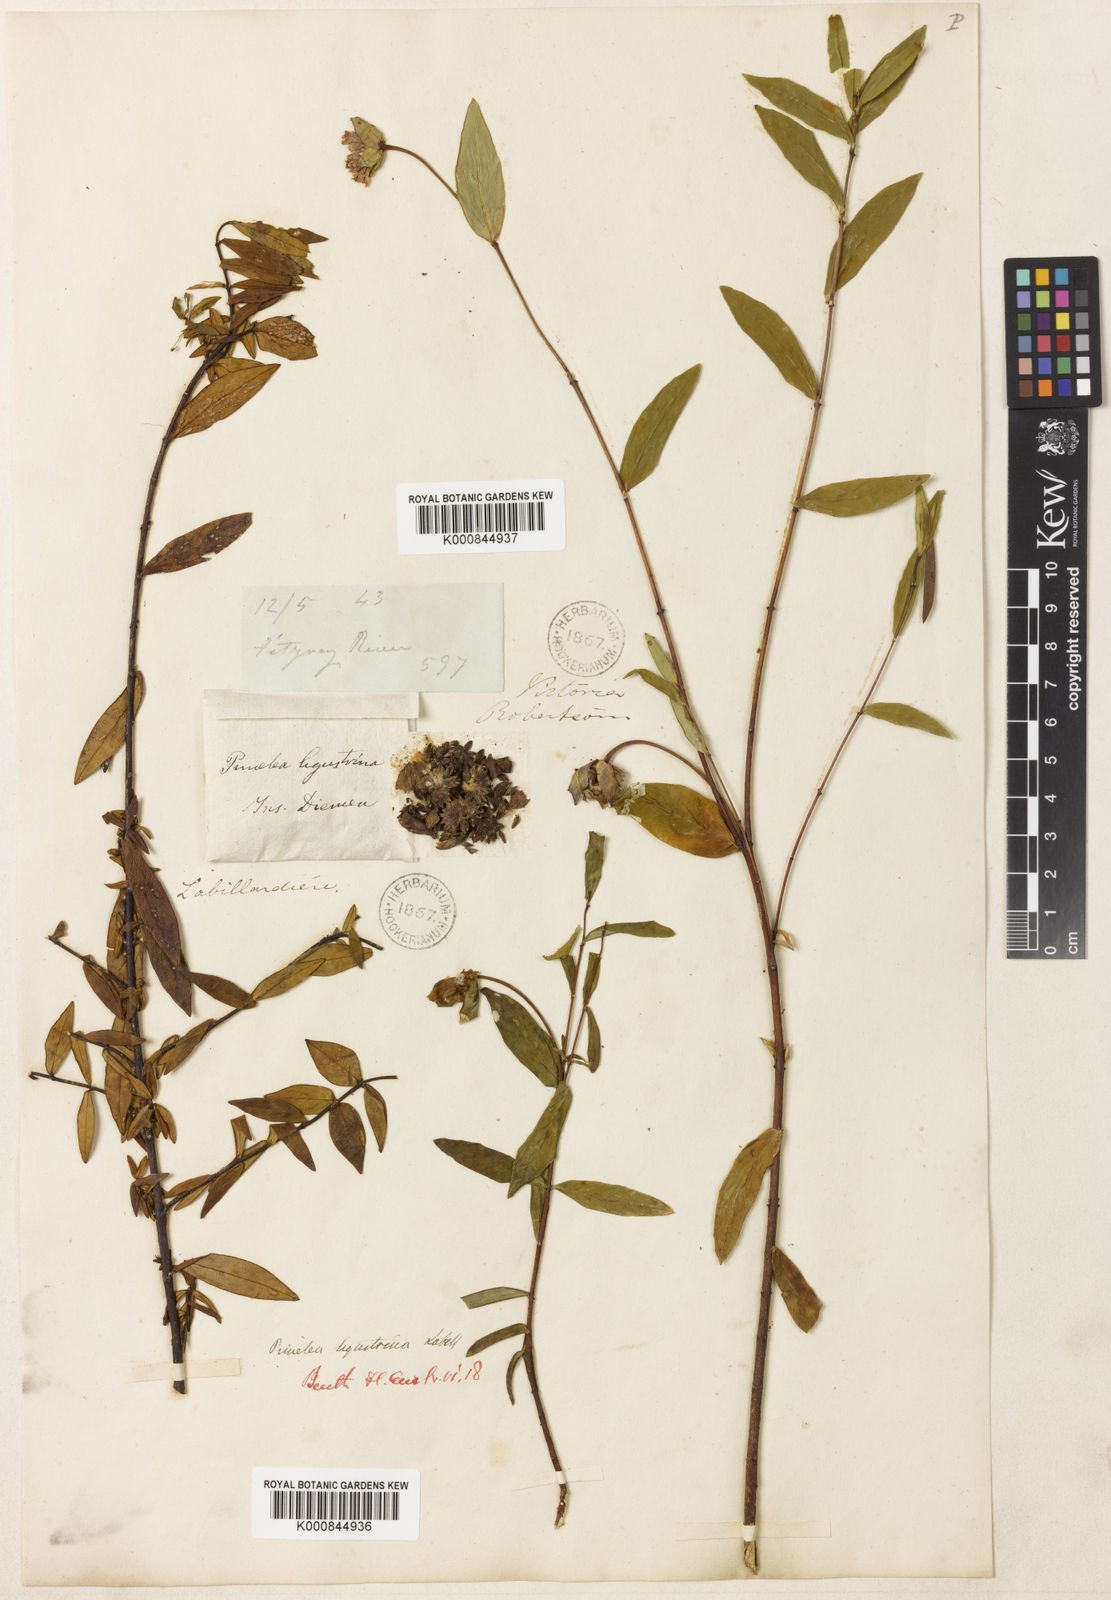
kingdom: Plantae
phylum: Tracheophyta
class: Magnoliopsida
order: Malvales
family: Thymelaeaceae
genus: Pimelea
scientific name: Pimelea ligustrina
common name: Tall riceflower
